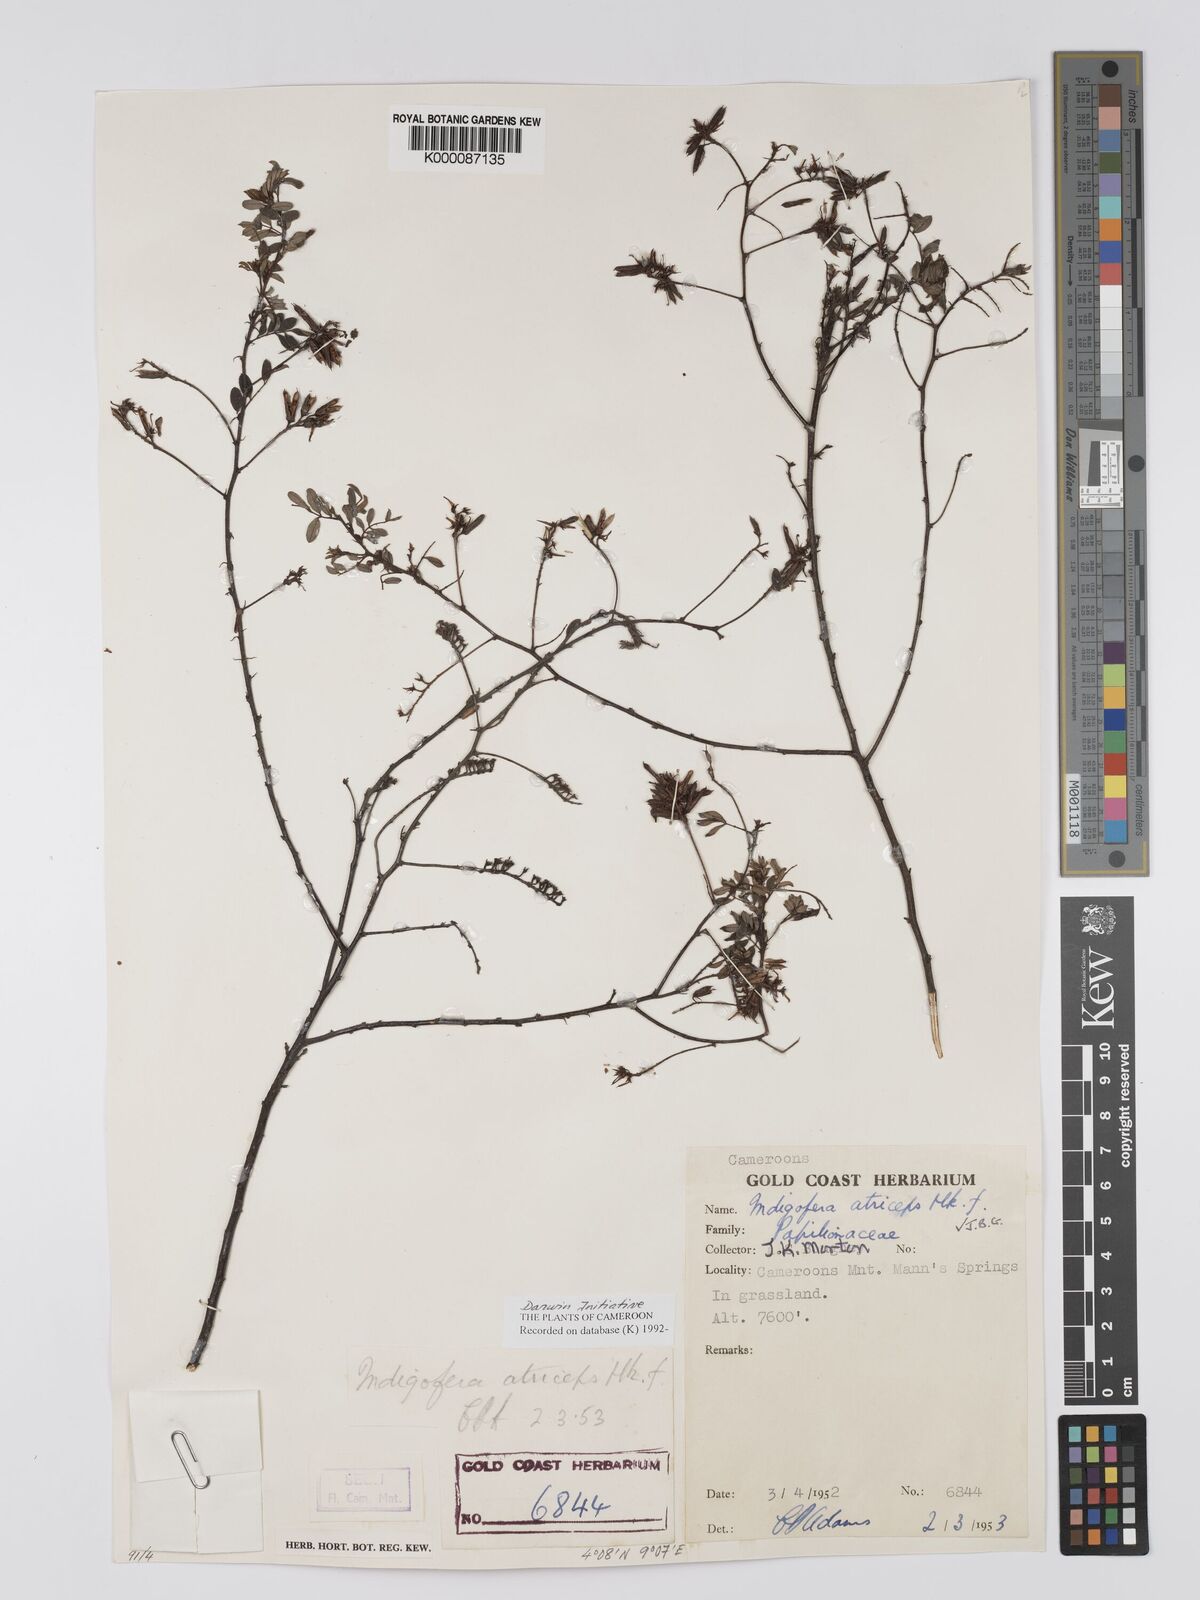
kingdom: Plantae
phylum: Tracheophyta
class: Magnoliopsida
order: Fabales
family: Fabaceae
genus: Indigofera
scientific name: Indigofera atriceps
